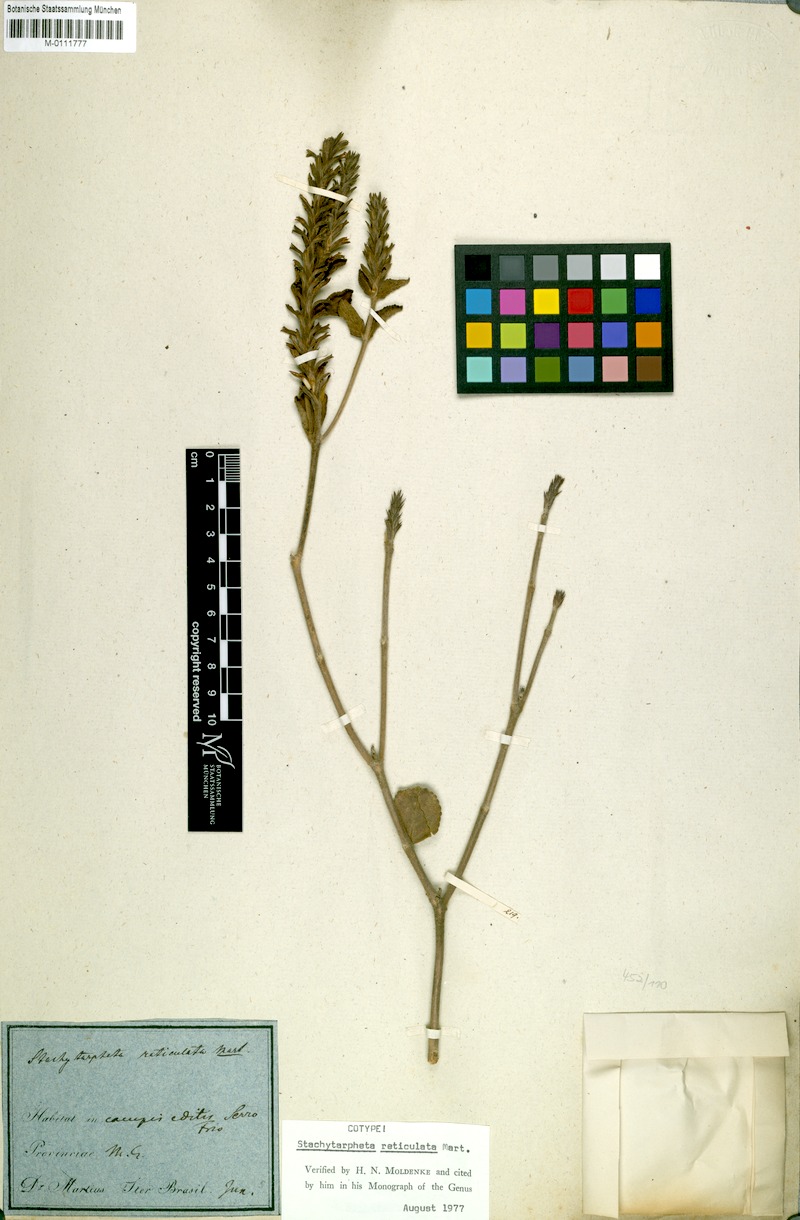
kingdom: Plantae
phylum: Tracheophyta
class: Magnoliopsida
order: Lamiales
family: Verbenaceae
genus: Stachytarpheta
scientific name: Stachytarpheta reticulata
